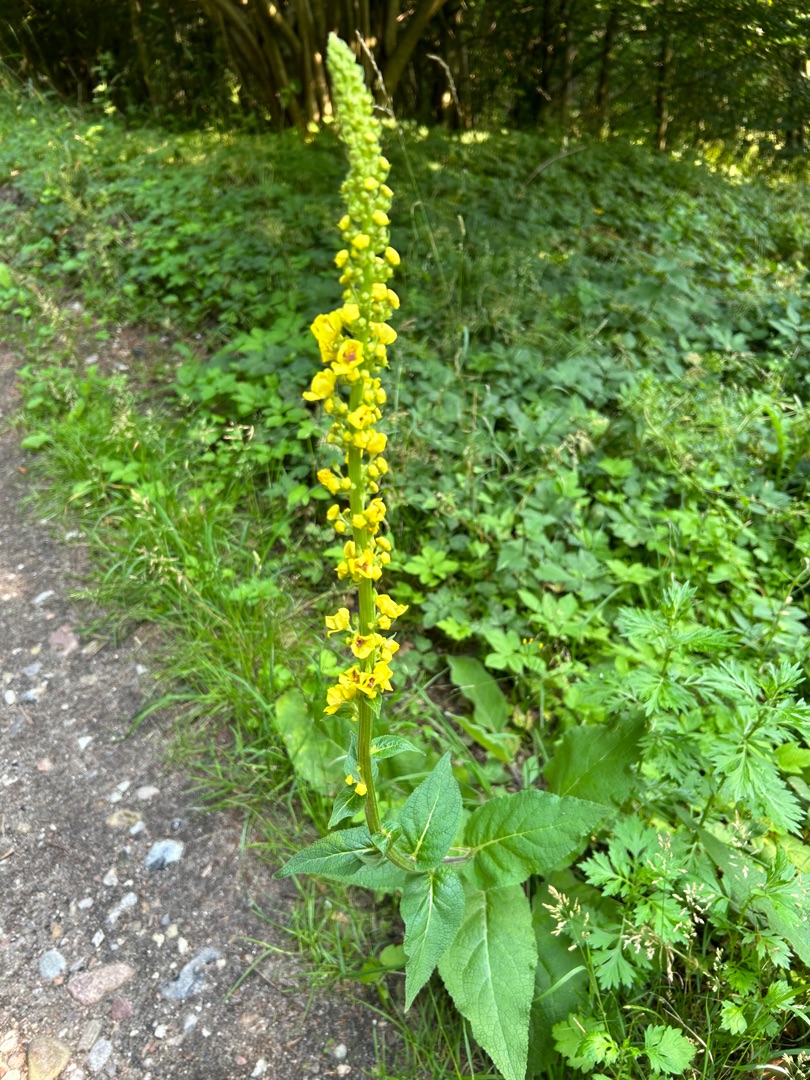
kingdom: Plantae
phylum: Tracheophyta
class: Magnoliopsida
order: Lamiales
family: Scrophulariaceae
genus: Verbascum
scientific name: Verbascum nigrum
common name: Mørk kongelys
